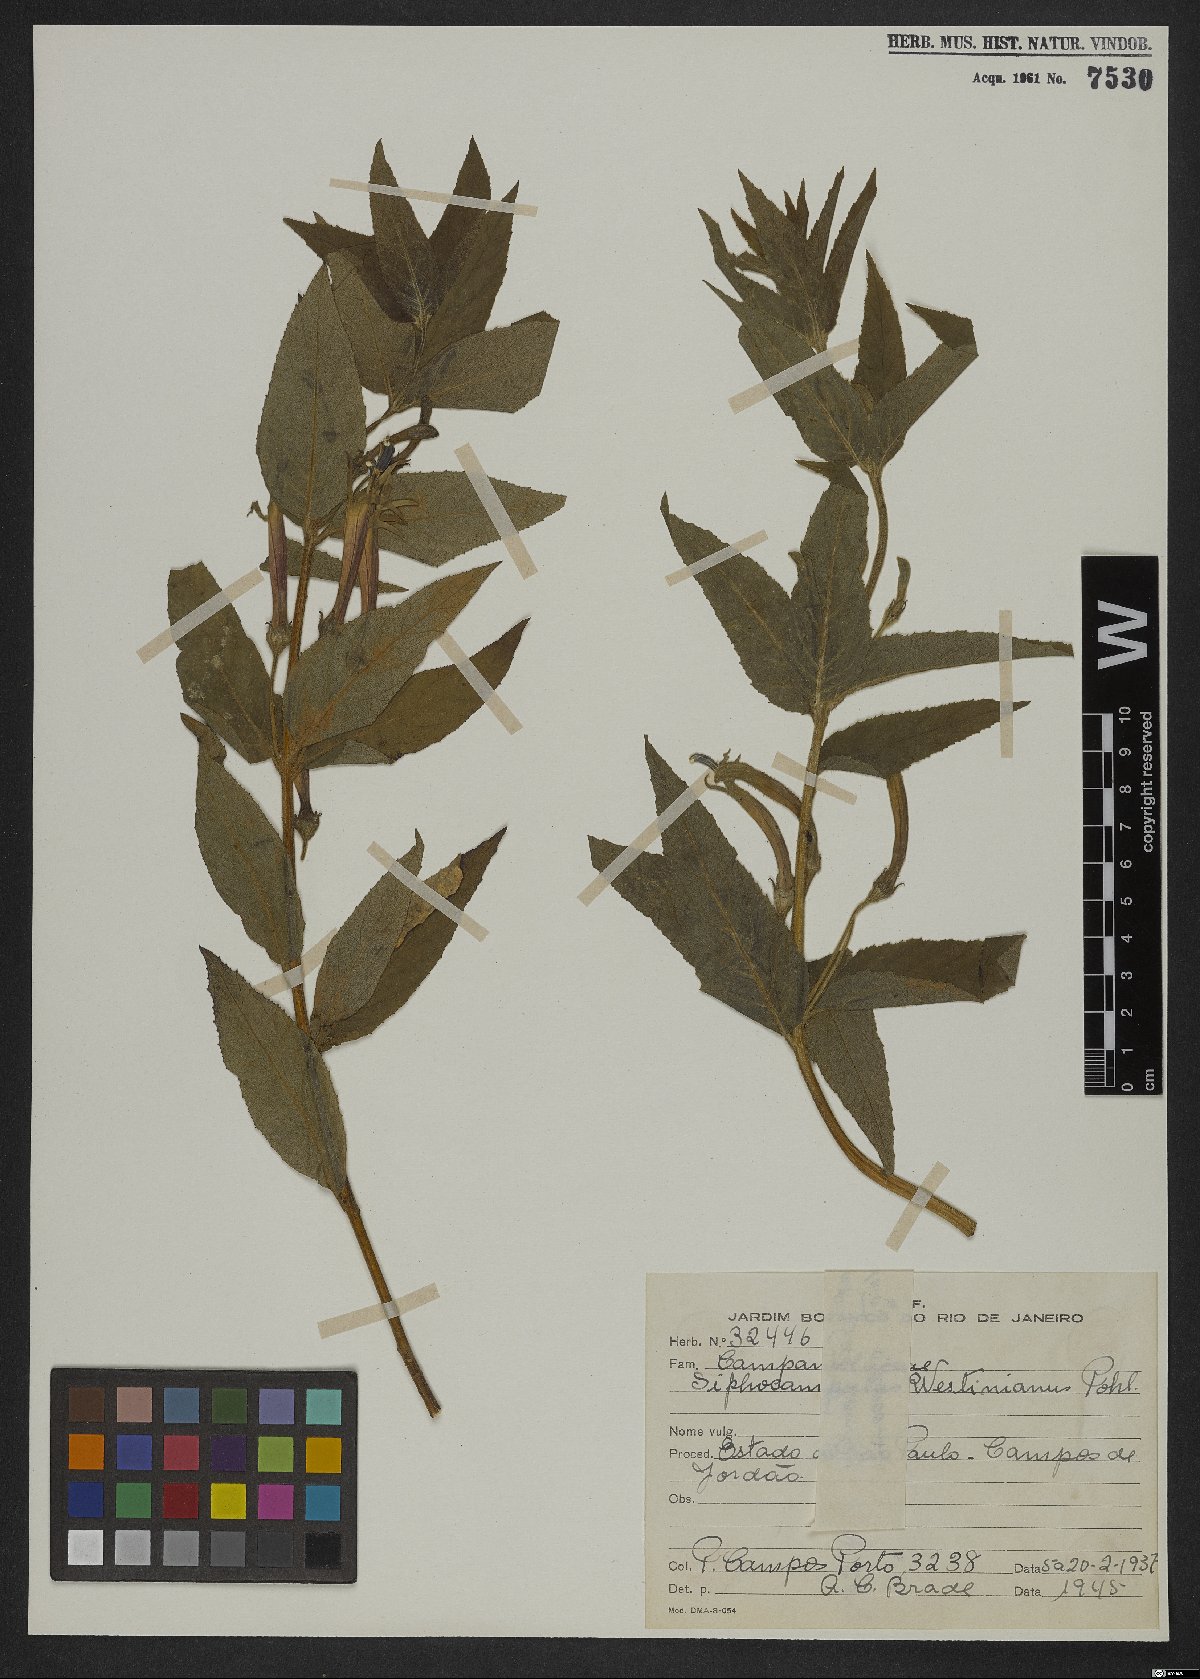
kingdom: Plantae
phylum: Tracheophyta
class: Magnoliopsida
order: Asterales
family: Campanulaceae
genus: Siphocampylus
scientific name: Siphocampylus westinianus
